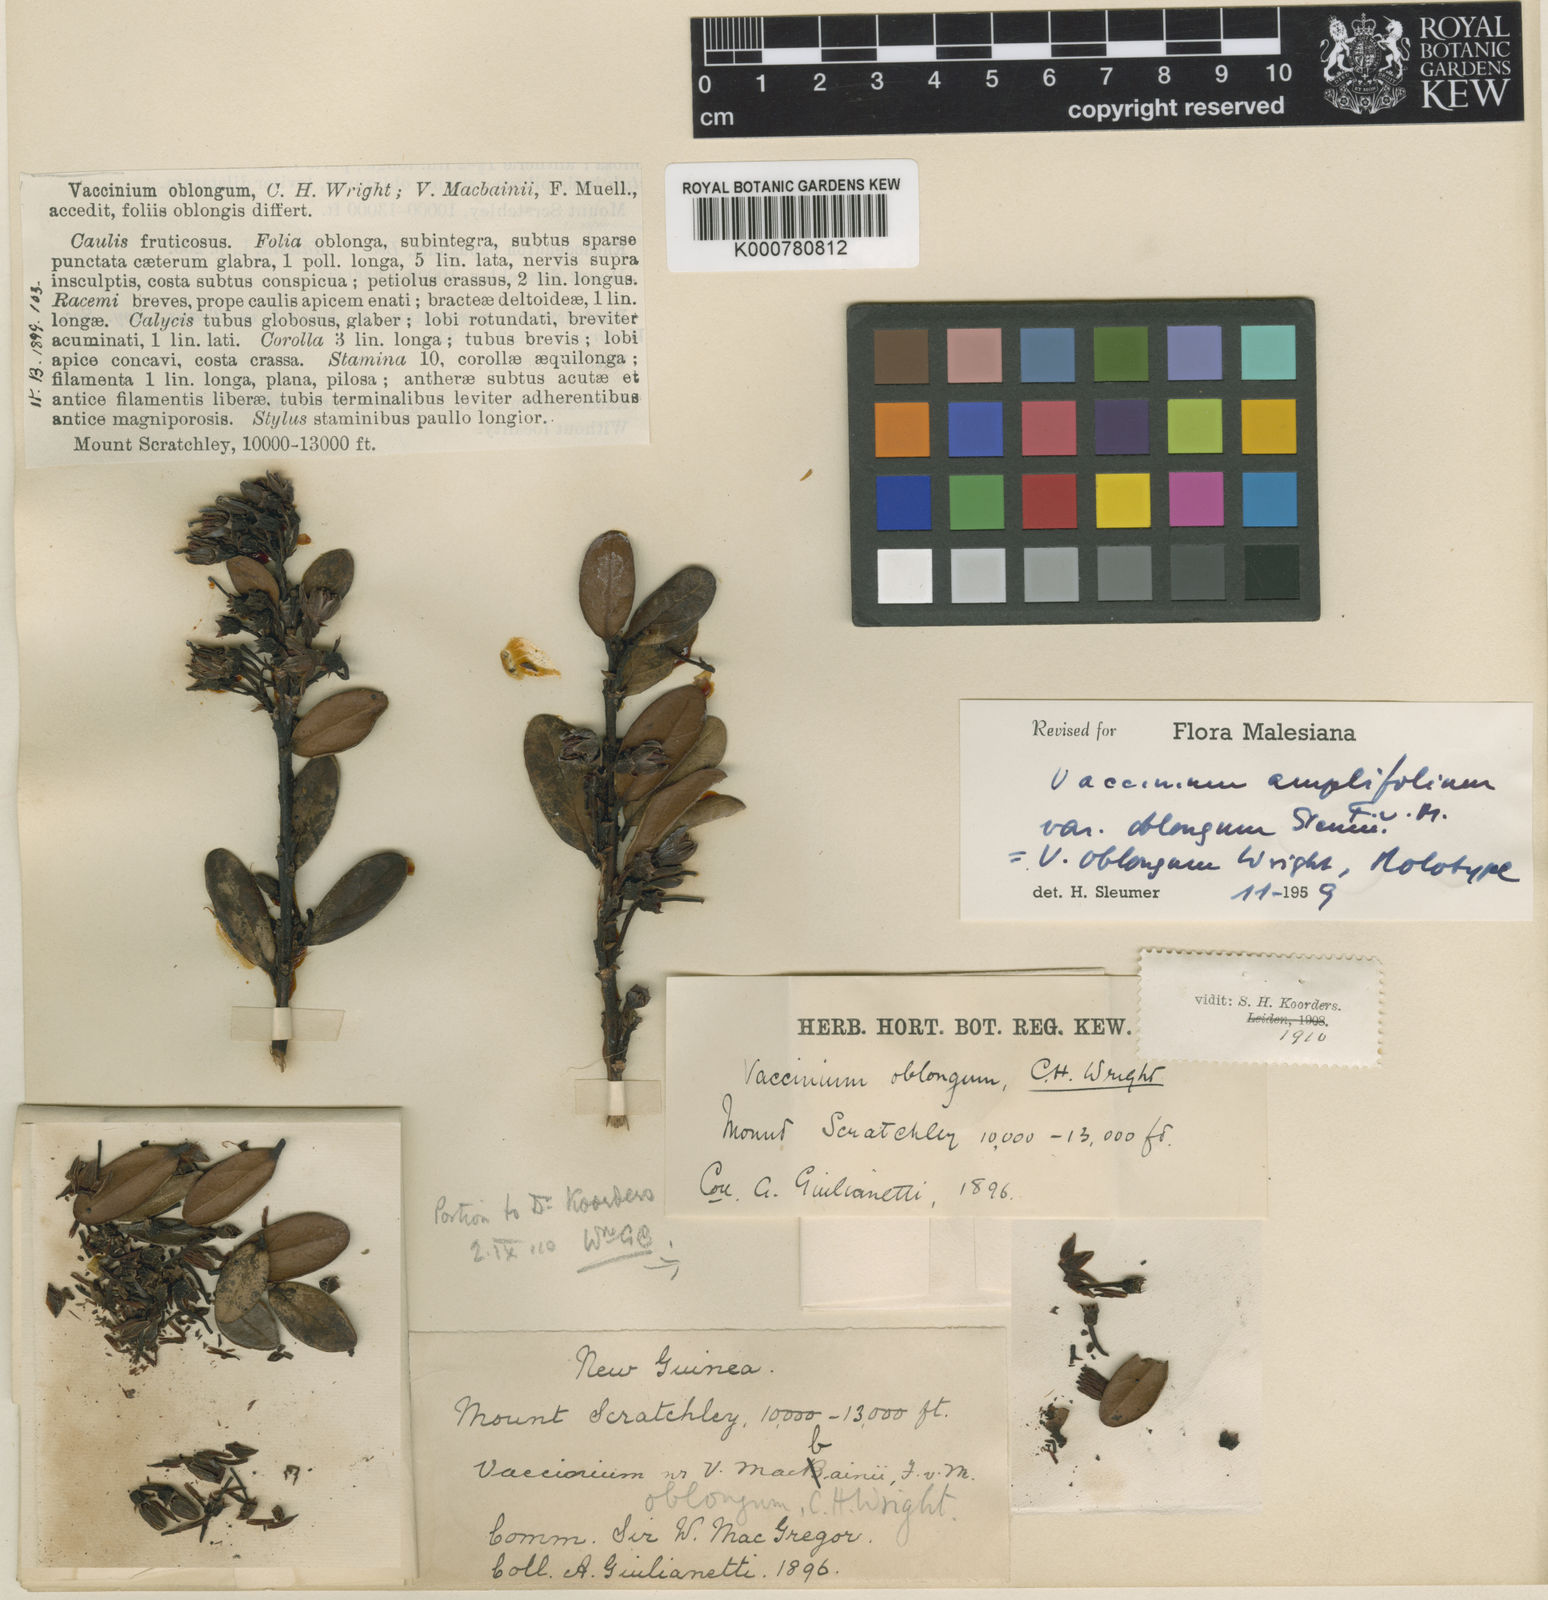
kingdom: Plantae
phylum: Tracheophyta
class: Magnoliopsida
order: Ericales
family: Ericaceae
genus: Dimorphanthera
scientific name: Dimorphanthera amplifolia
